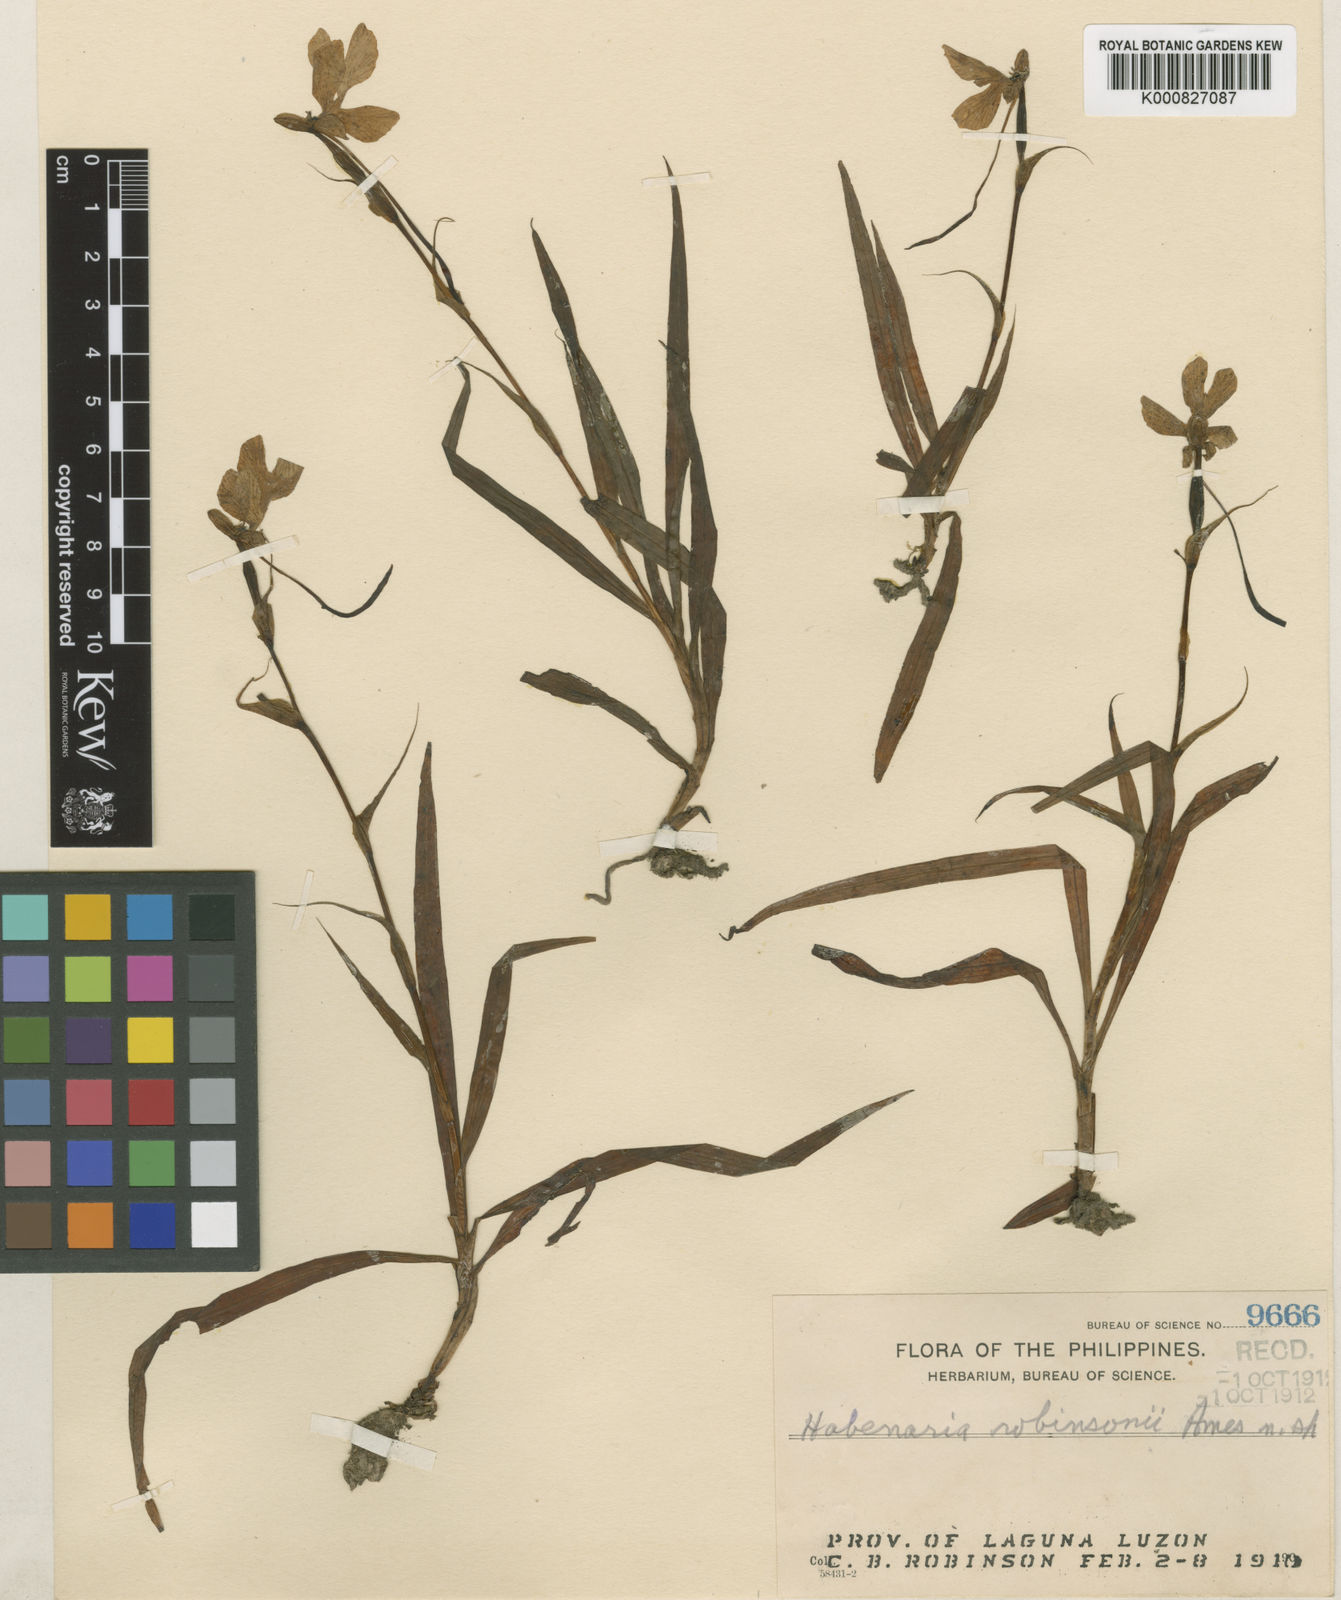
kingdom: Plantae
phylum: Tracheophyta
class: Liliopsida
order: Asparagales
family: Orchidaceae
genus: Habenaria
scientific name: Habenaria robinsonii
